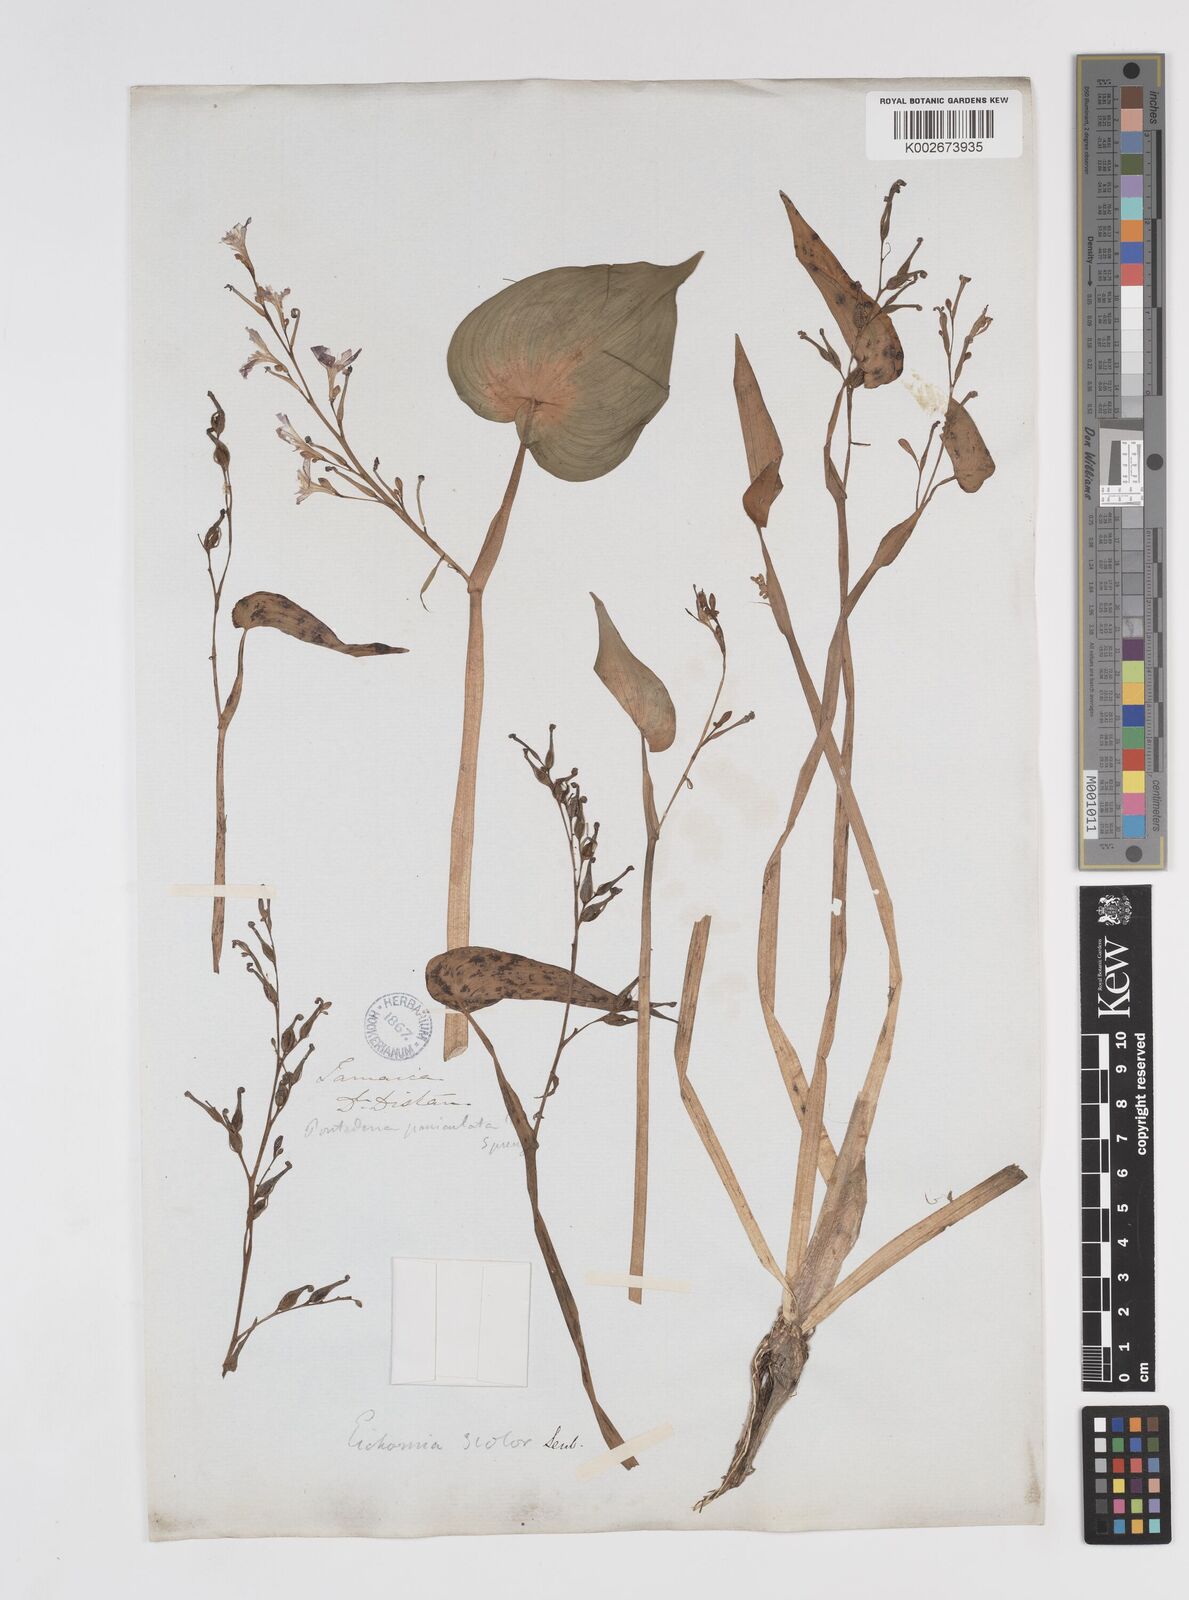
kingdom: Plantae
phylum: Tracheophyta
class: Liliopsida
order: Commelinales
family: Pontederiaceae
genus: Pontederia
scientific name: Pontederia paniculata
